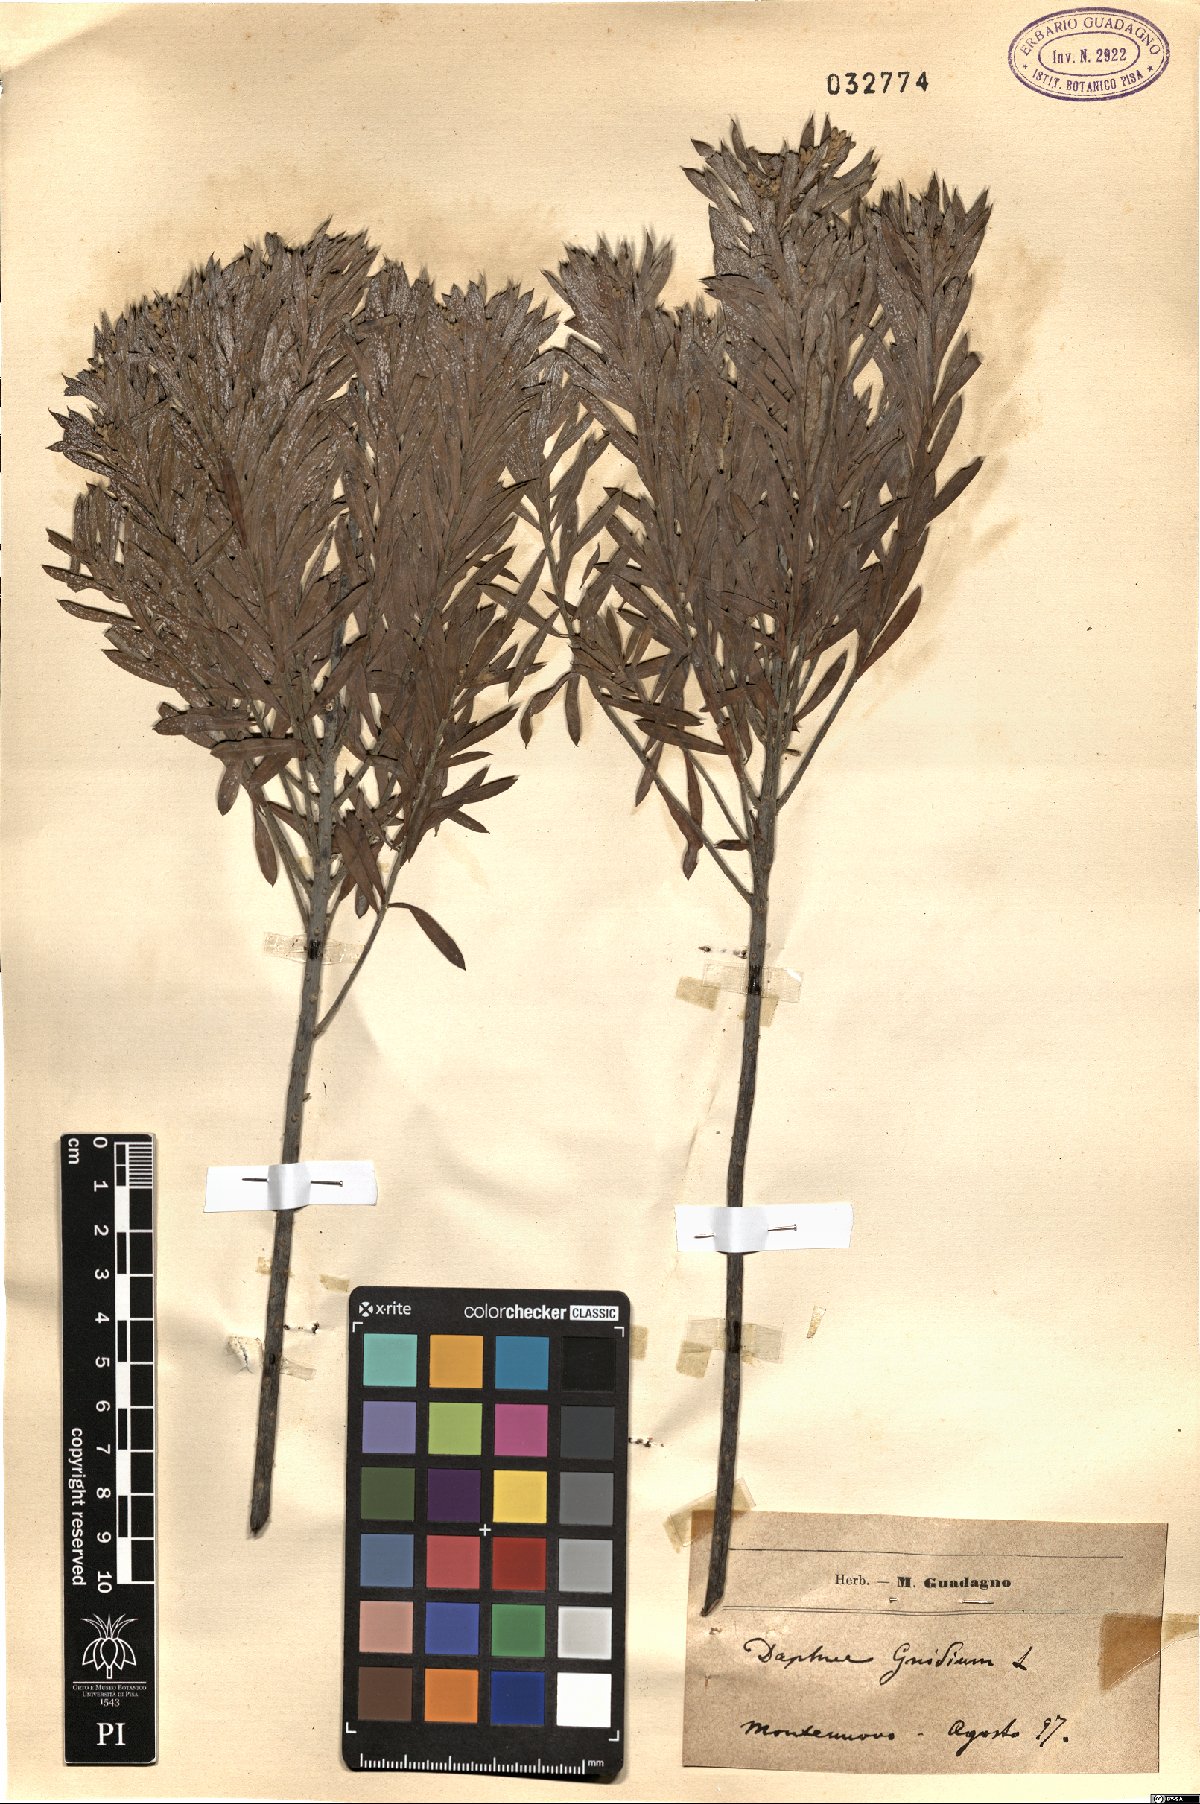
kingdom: Plantae
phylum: Tracheophyta
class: Magnoliopsida
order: Malvales
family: Thymelaeaceae
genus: Daphne
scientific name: Daphne gnidium
